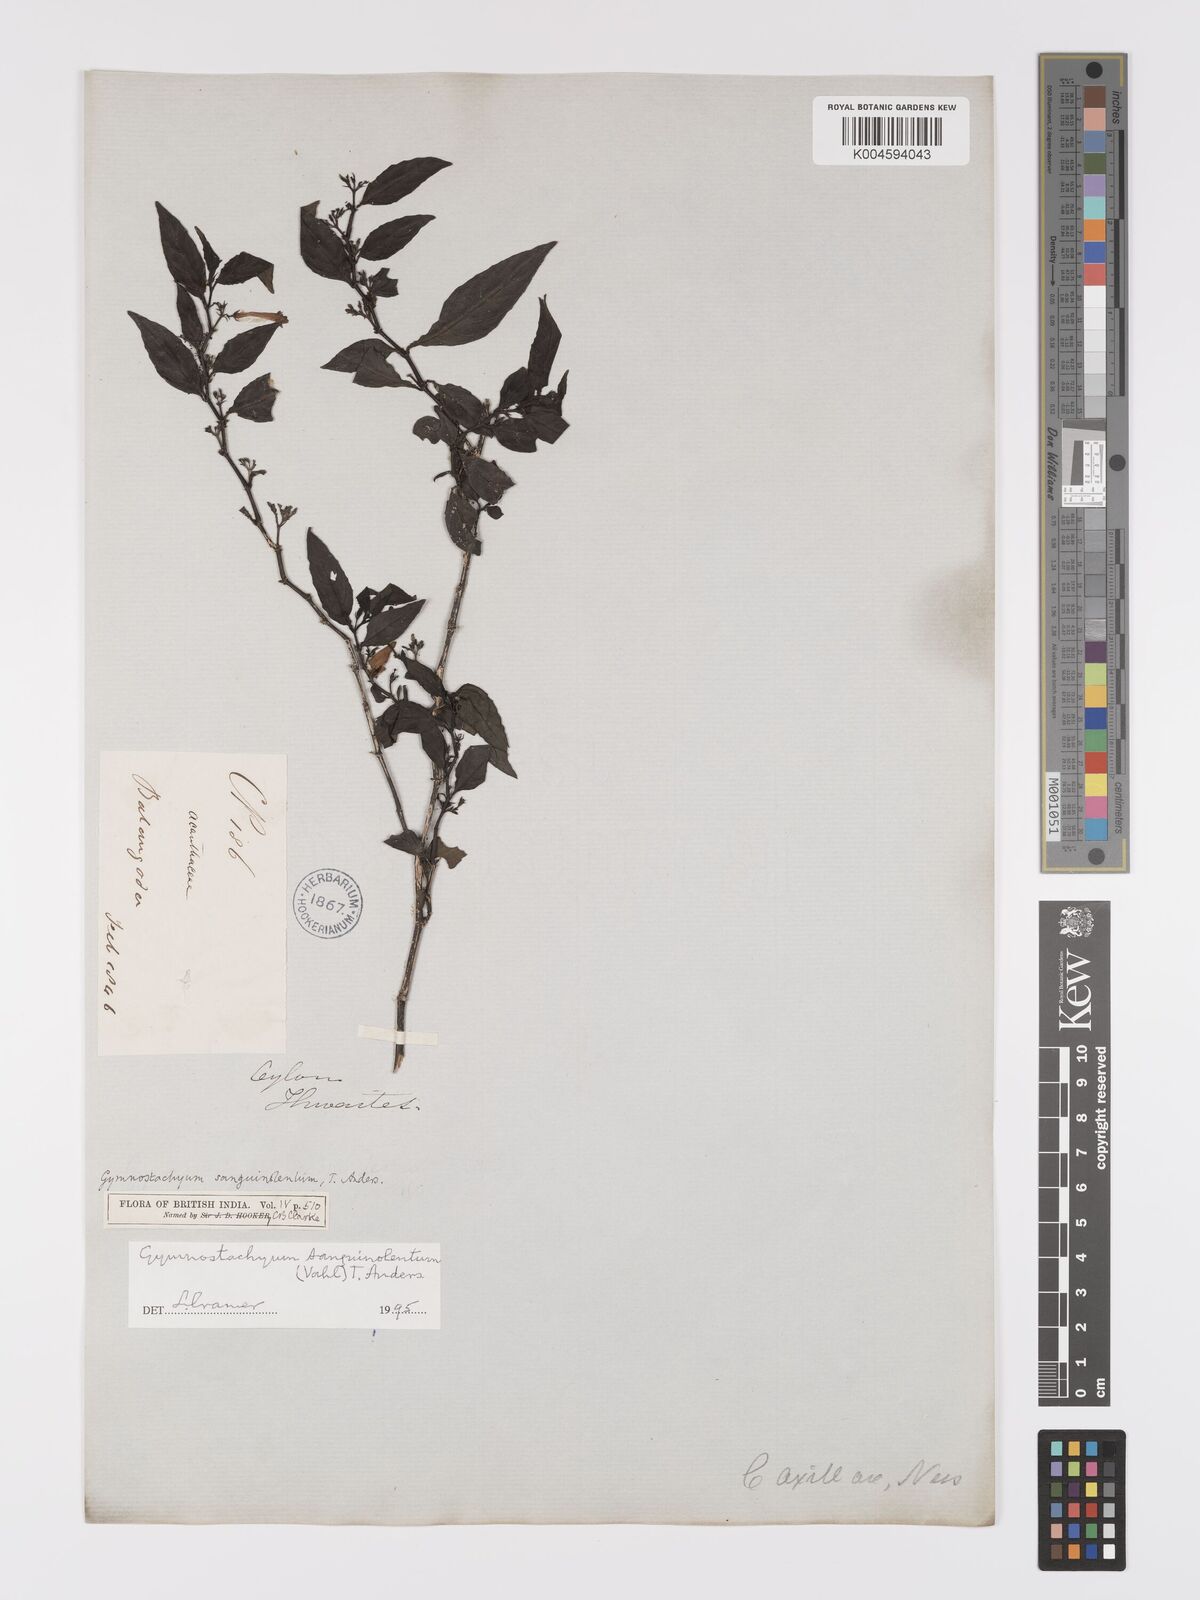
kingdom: Plantae
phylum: Tracheophyta
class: Magnoliopsida
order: Lamiales
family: Acanthaceae
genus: Gymnostachyum
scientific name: Gymnostachyum sanguinolentum
